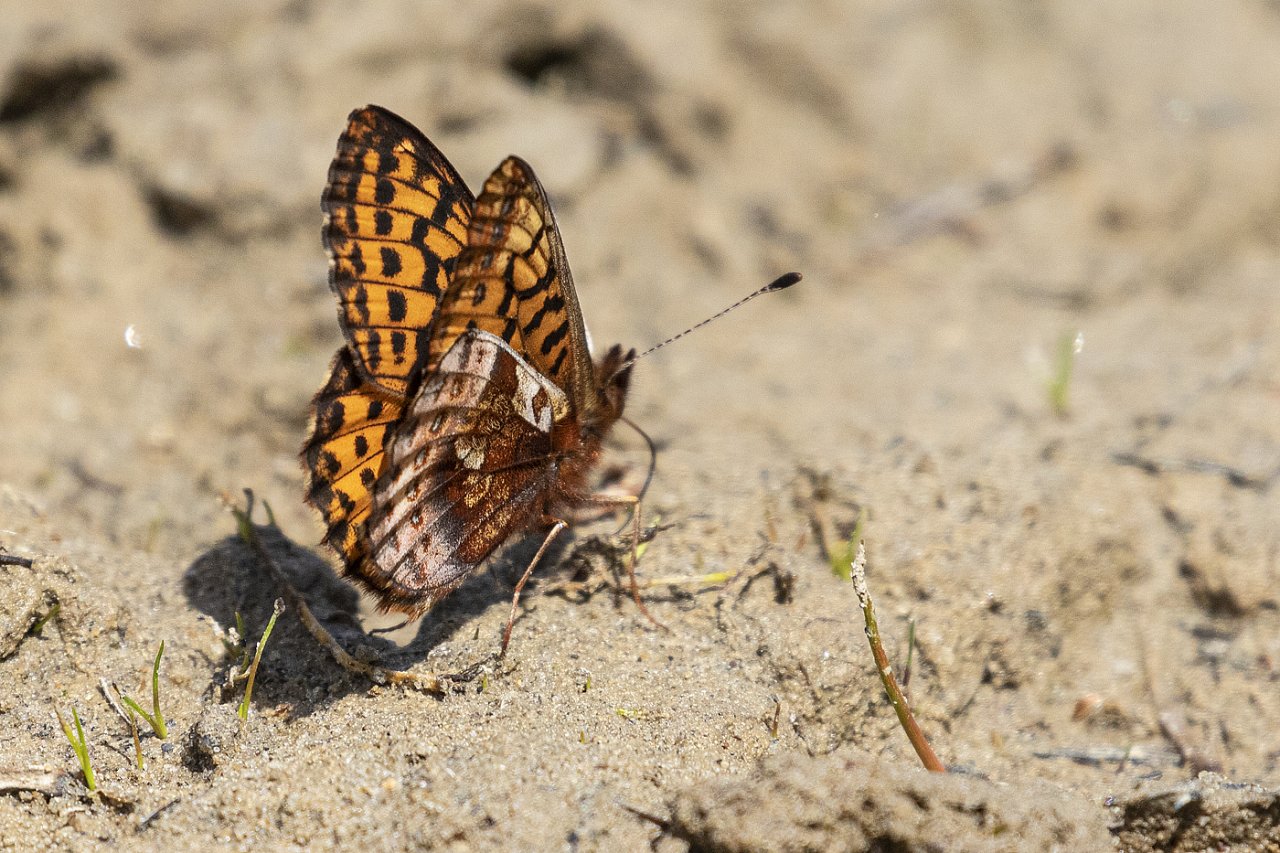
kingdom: Animalia
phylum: Arthropoda
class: Insecta
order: Lepidoptera
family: Nymphalidae
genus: Boloria
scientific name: Boloria frigga
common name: Frigga Fritillary
